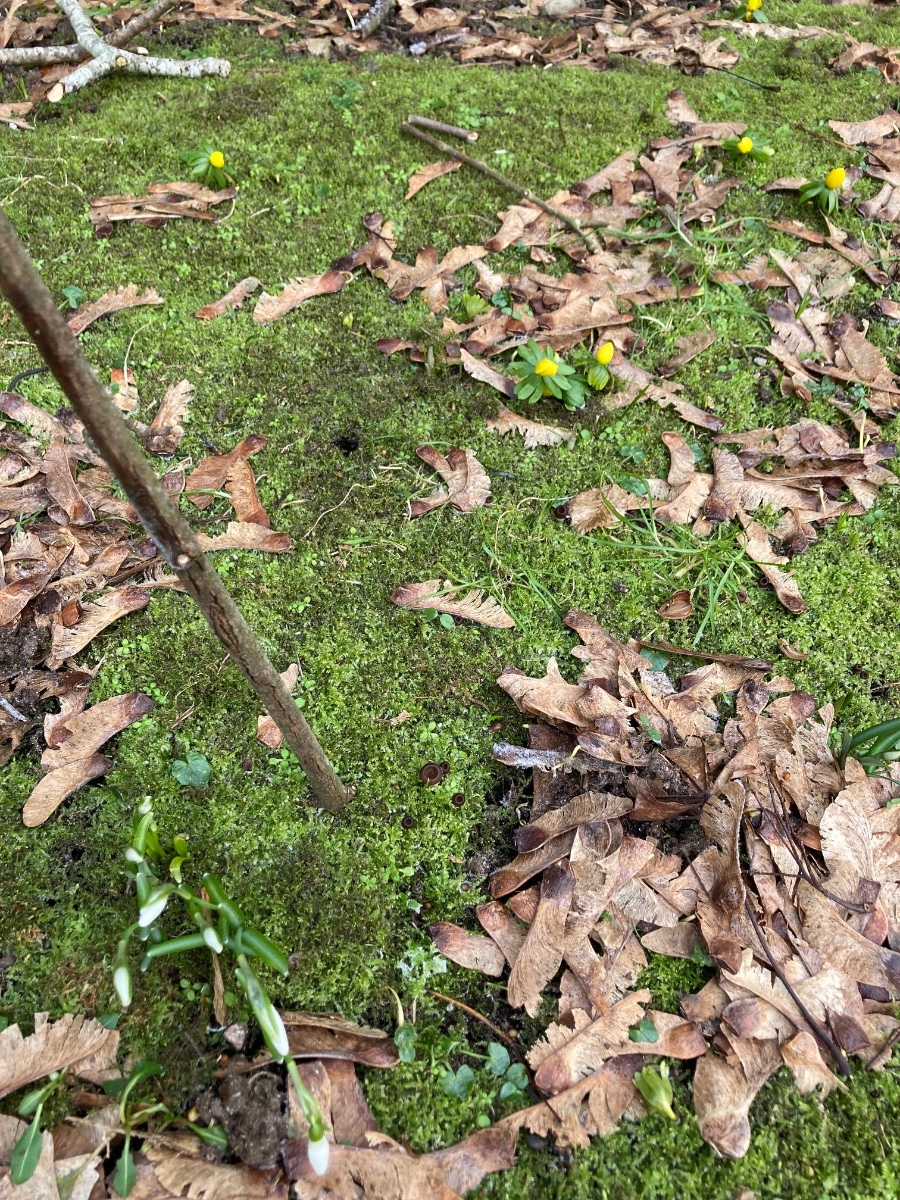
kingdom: Fungi
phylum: Ascomycota
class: Leotiomycetes
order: Helotiales
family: Sclerotiniaceae
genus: Dumontinia
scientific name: Dumontinia tuberosa
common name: anemone-knoldskive
